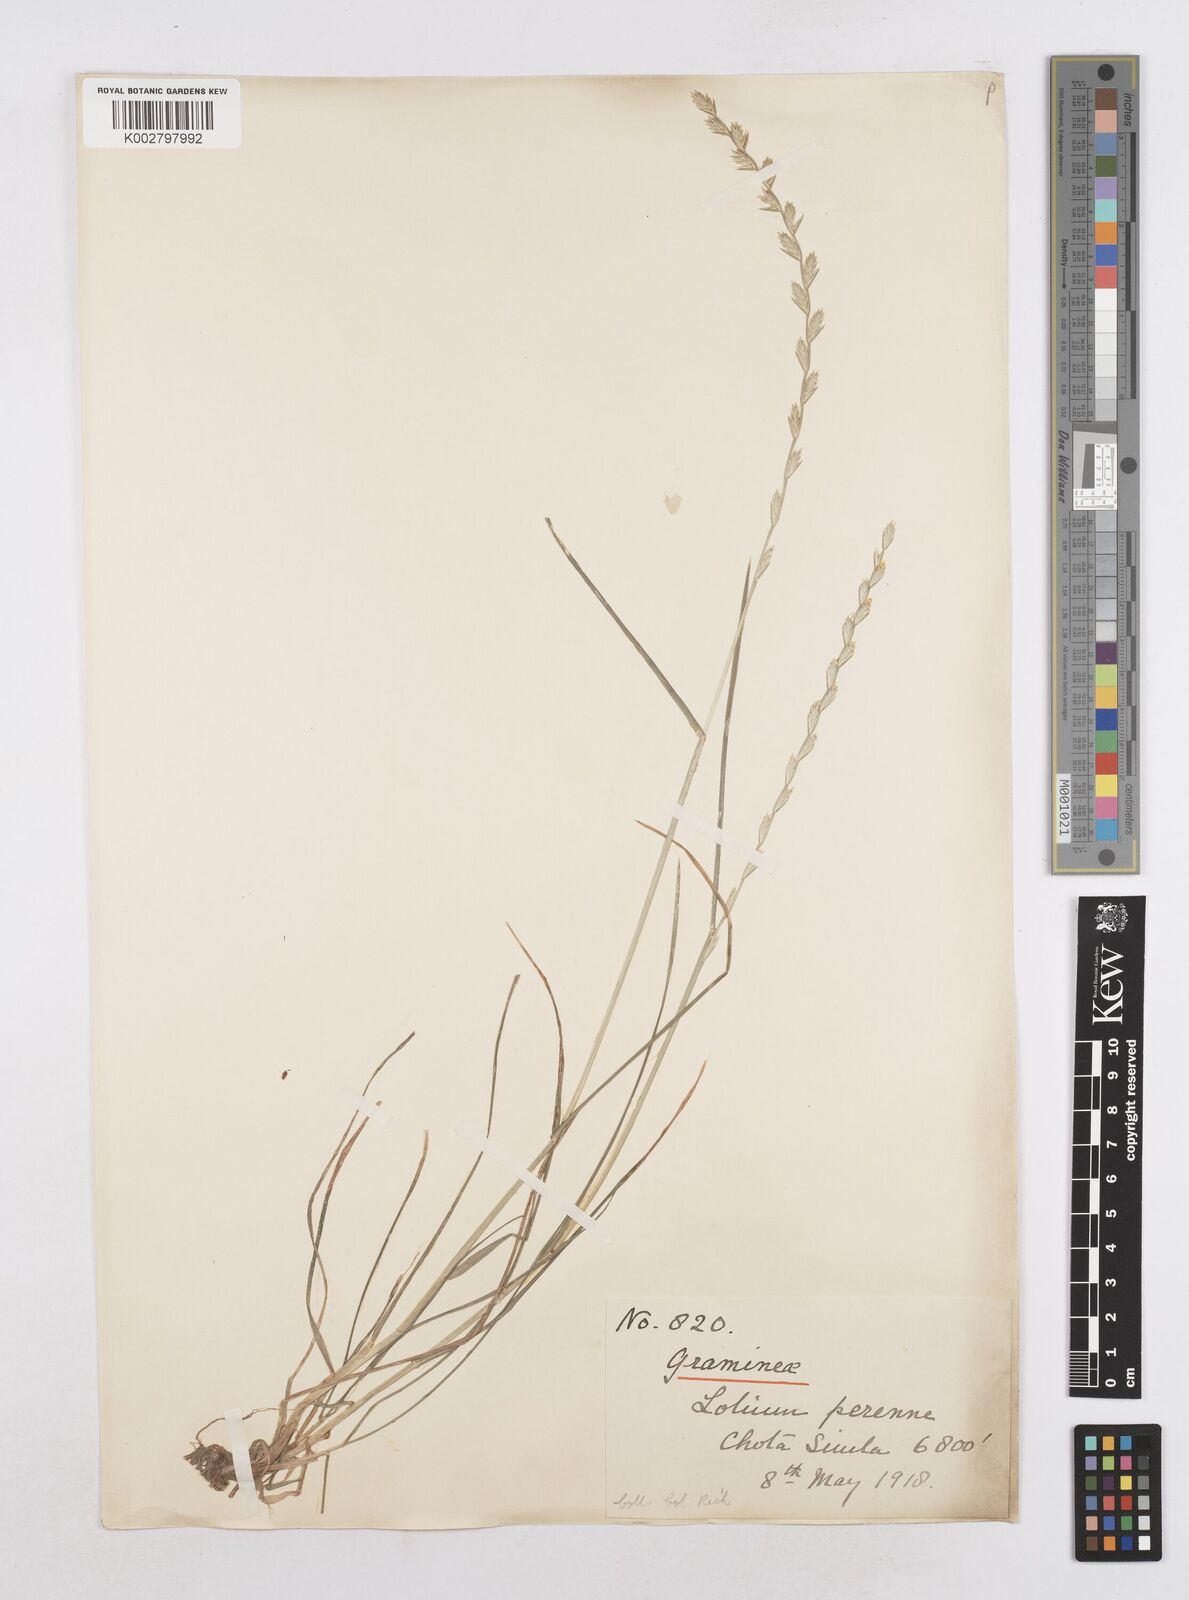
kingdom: Plantae
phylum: Tracheophyta
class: Liliopsida
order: Poales
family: Poaceae
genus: Lolium
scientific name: Lolium perenne
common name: Perennial ryegrass
